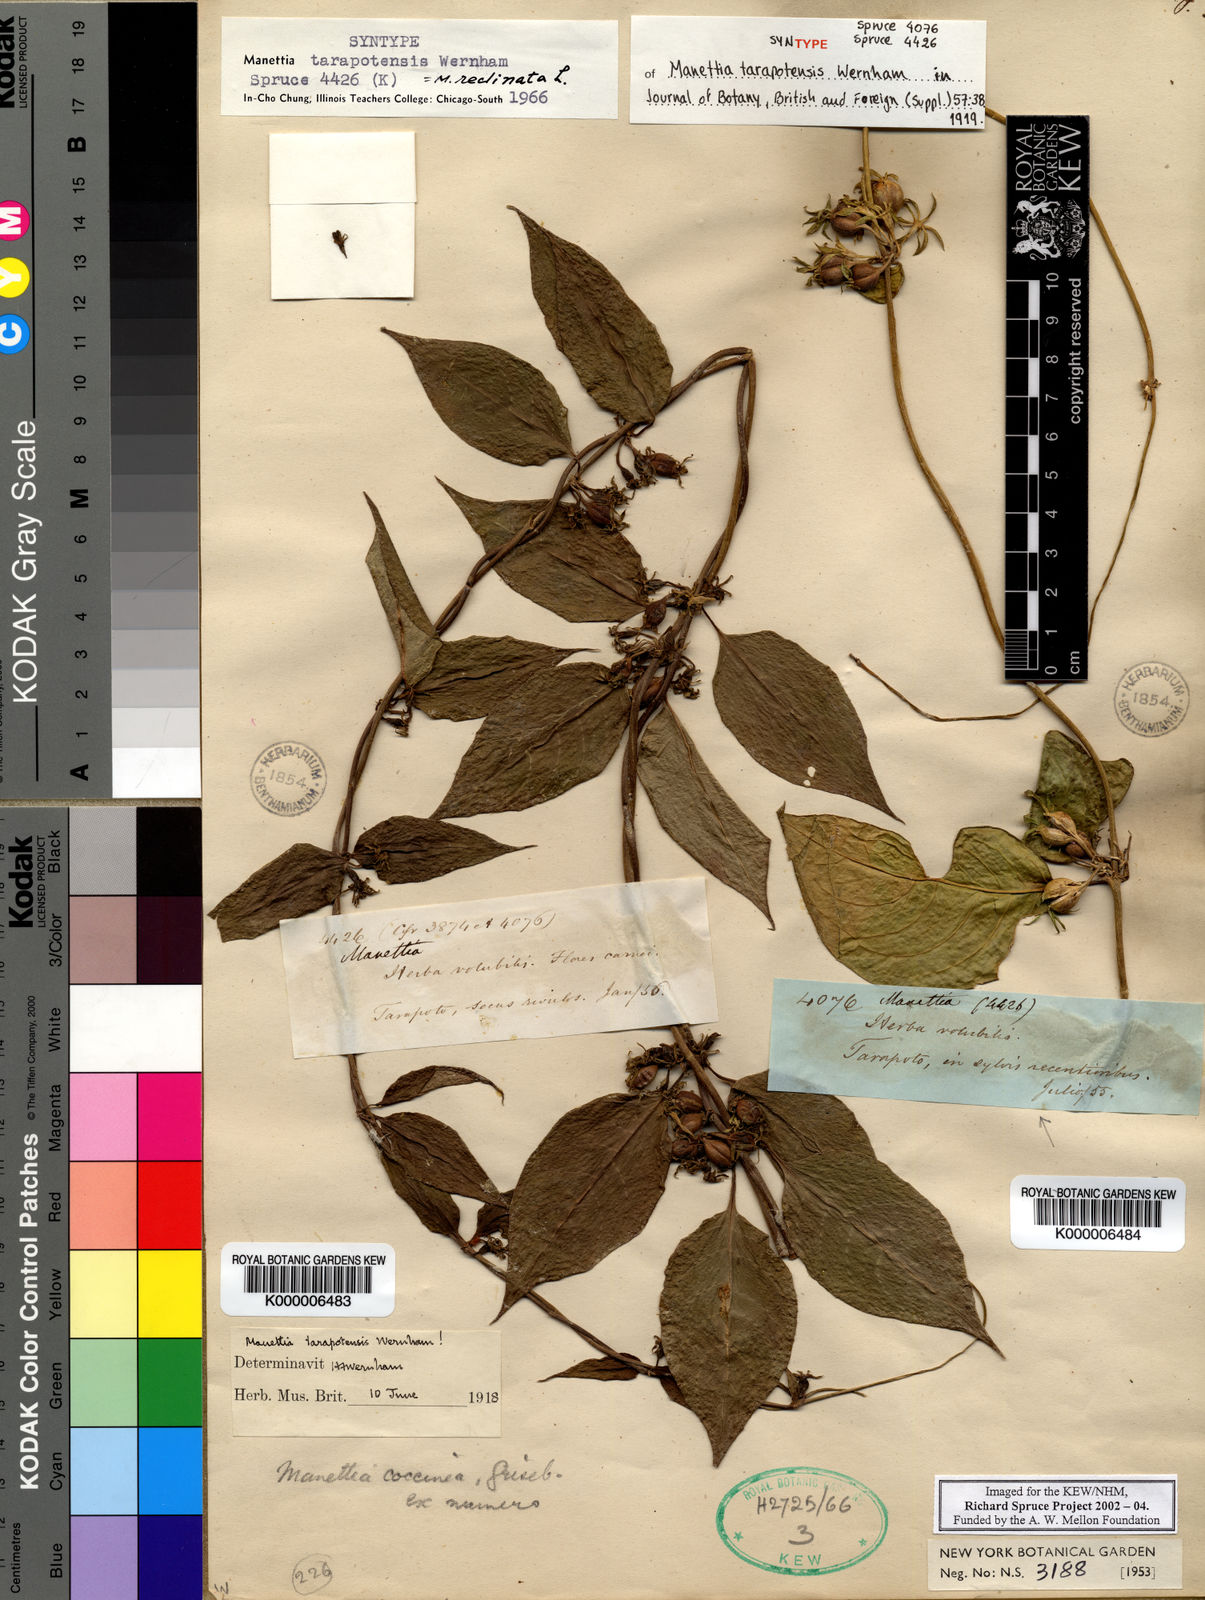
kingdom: Plantae
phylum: Tracheophyta
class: Magnoliopsida
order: Gentianales
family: Rubiaceae
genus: Manettia
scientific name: Manettia reclinata
